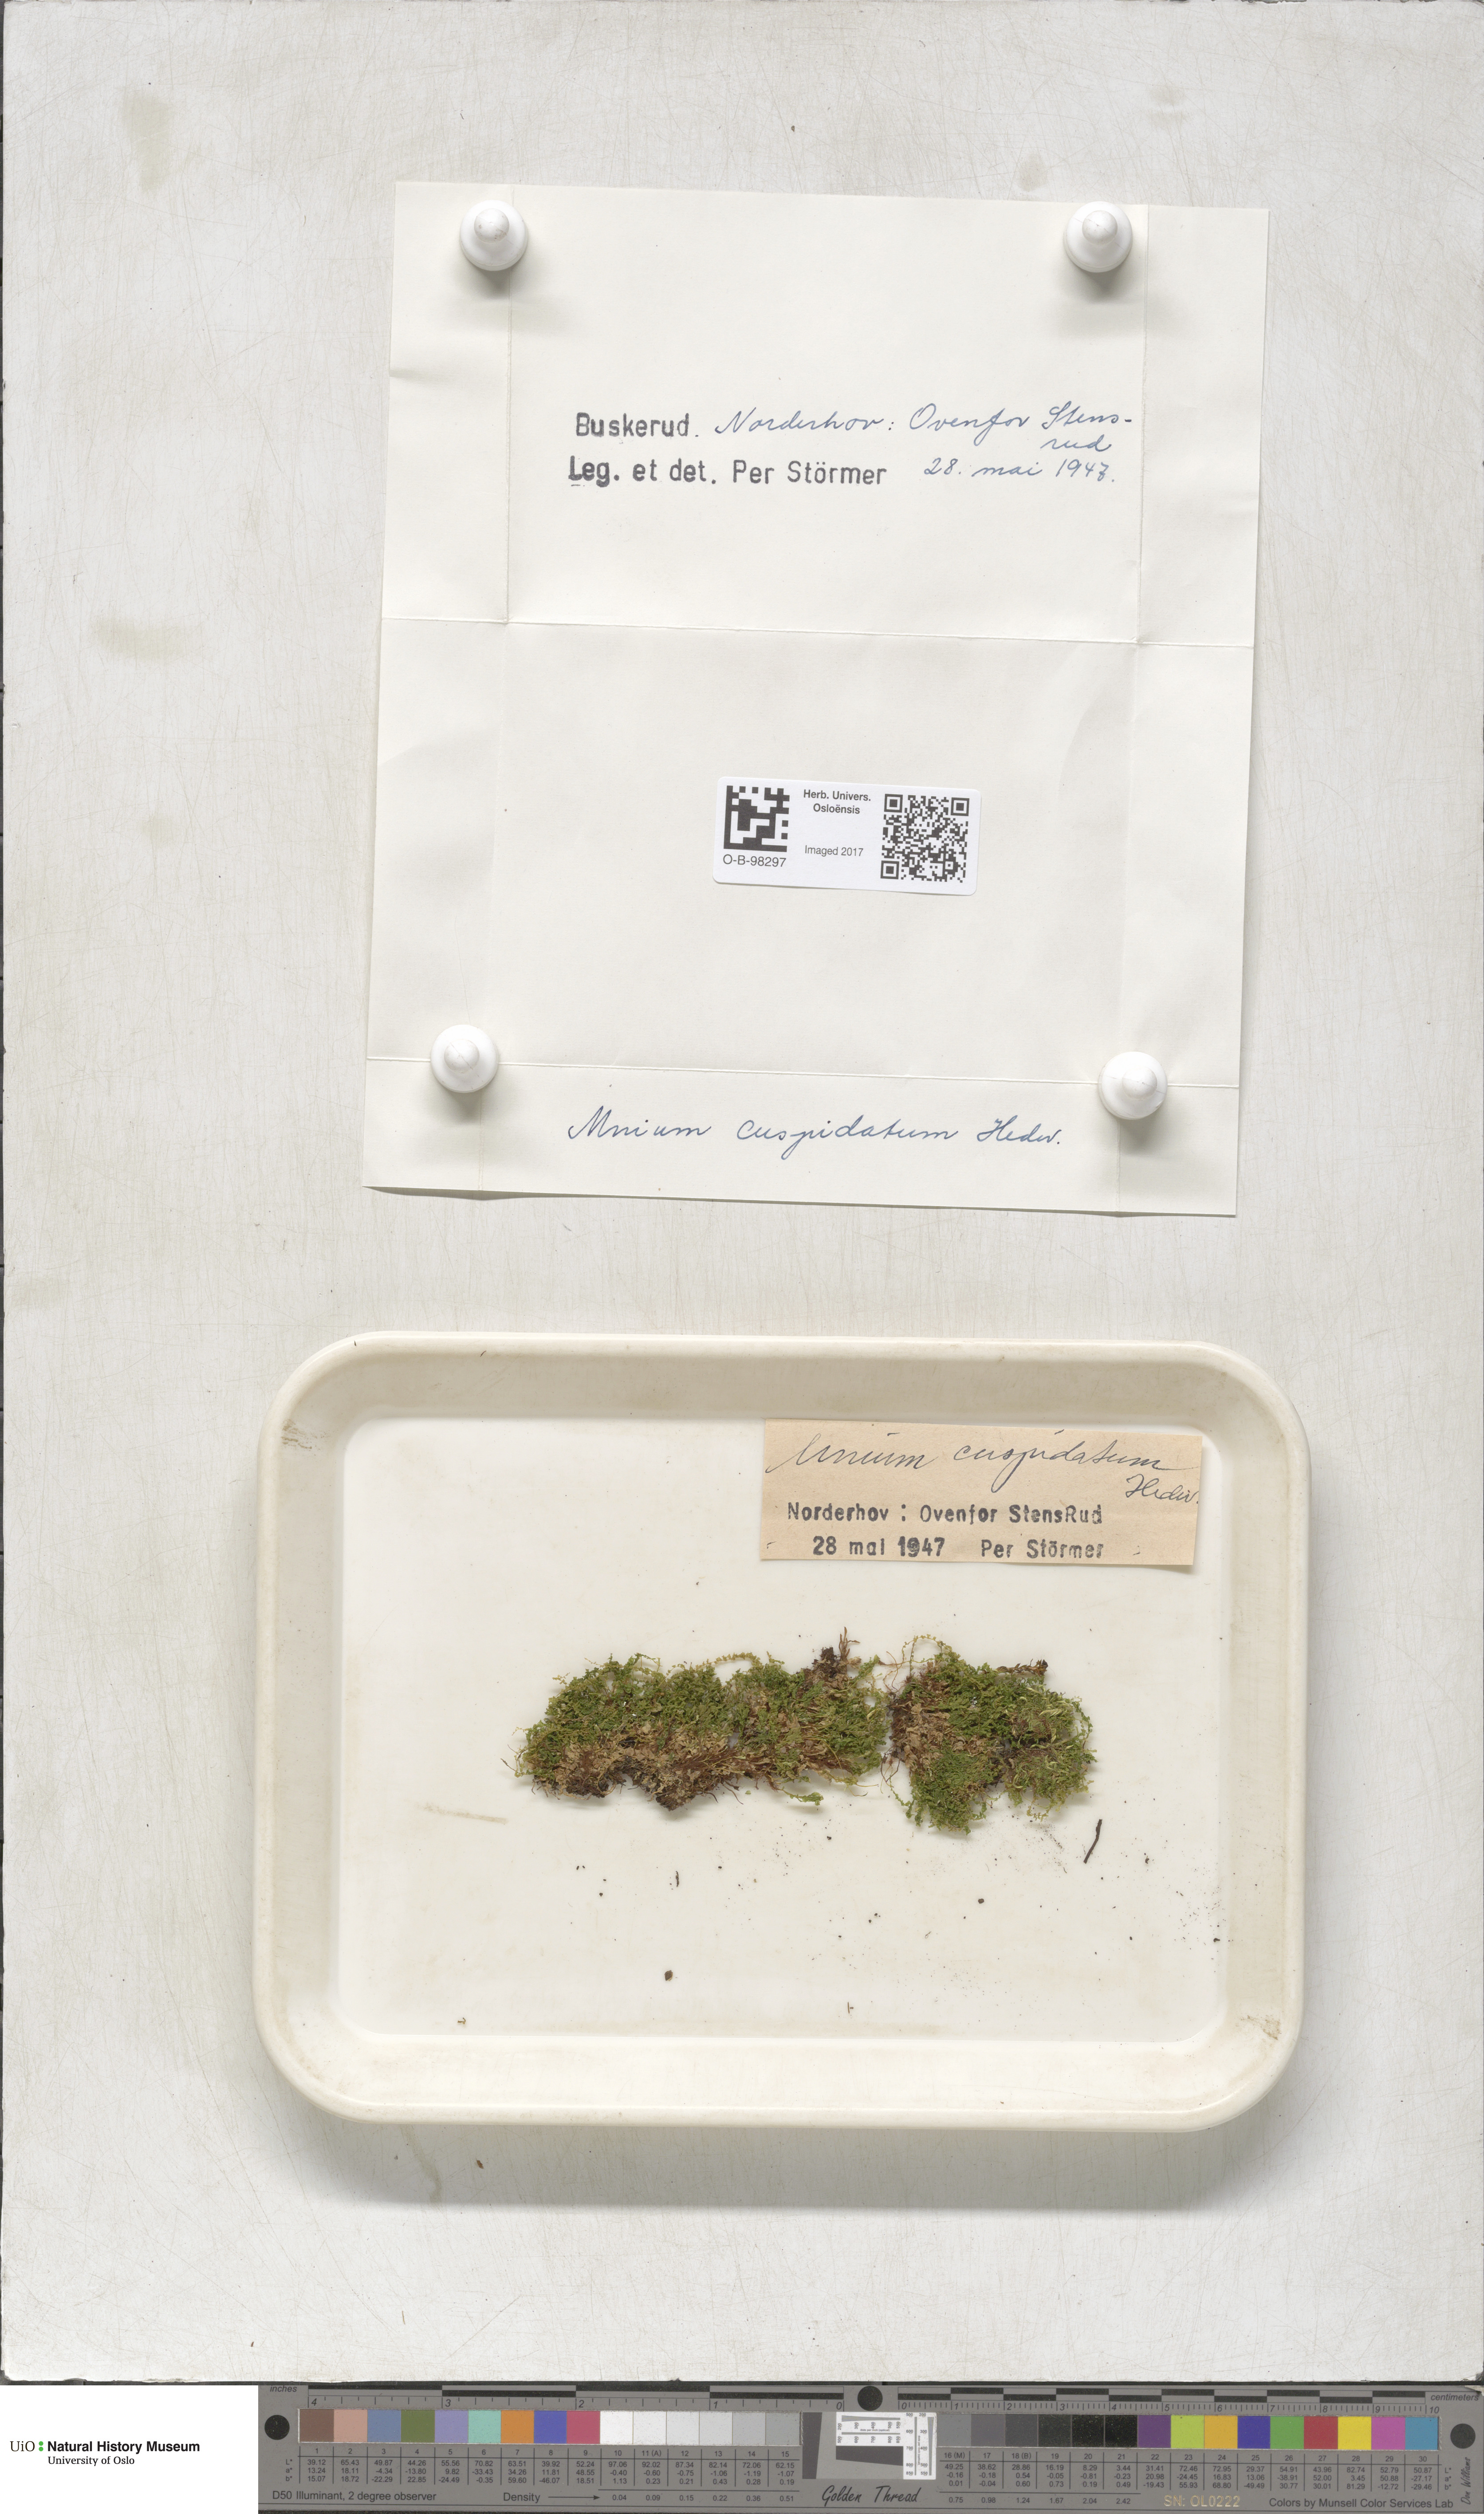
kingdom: Plantae
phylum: Bryophyta
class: Bryopsida
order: Bryales
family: Mniaceae
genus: Plagiomnium
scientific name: Plagiomnium cuspidatum
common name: Woodsy leafy moss
